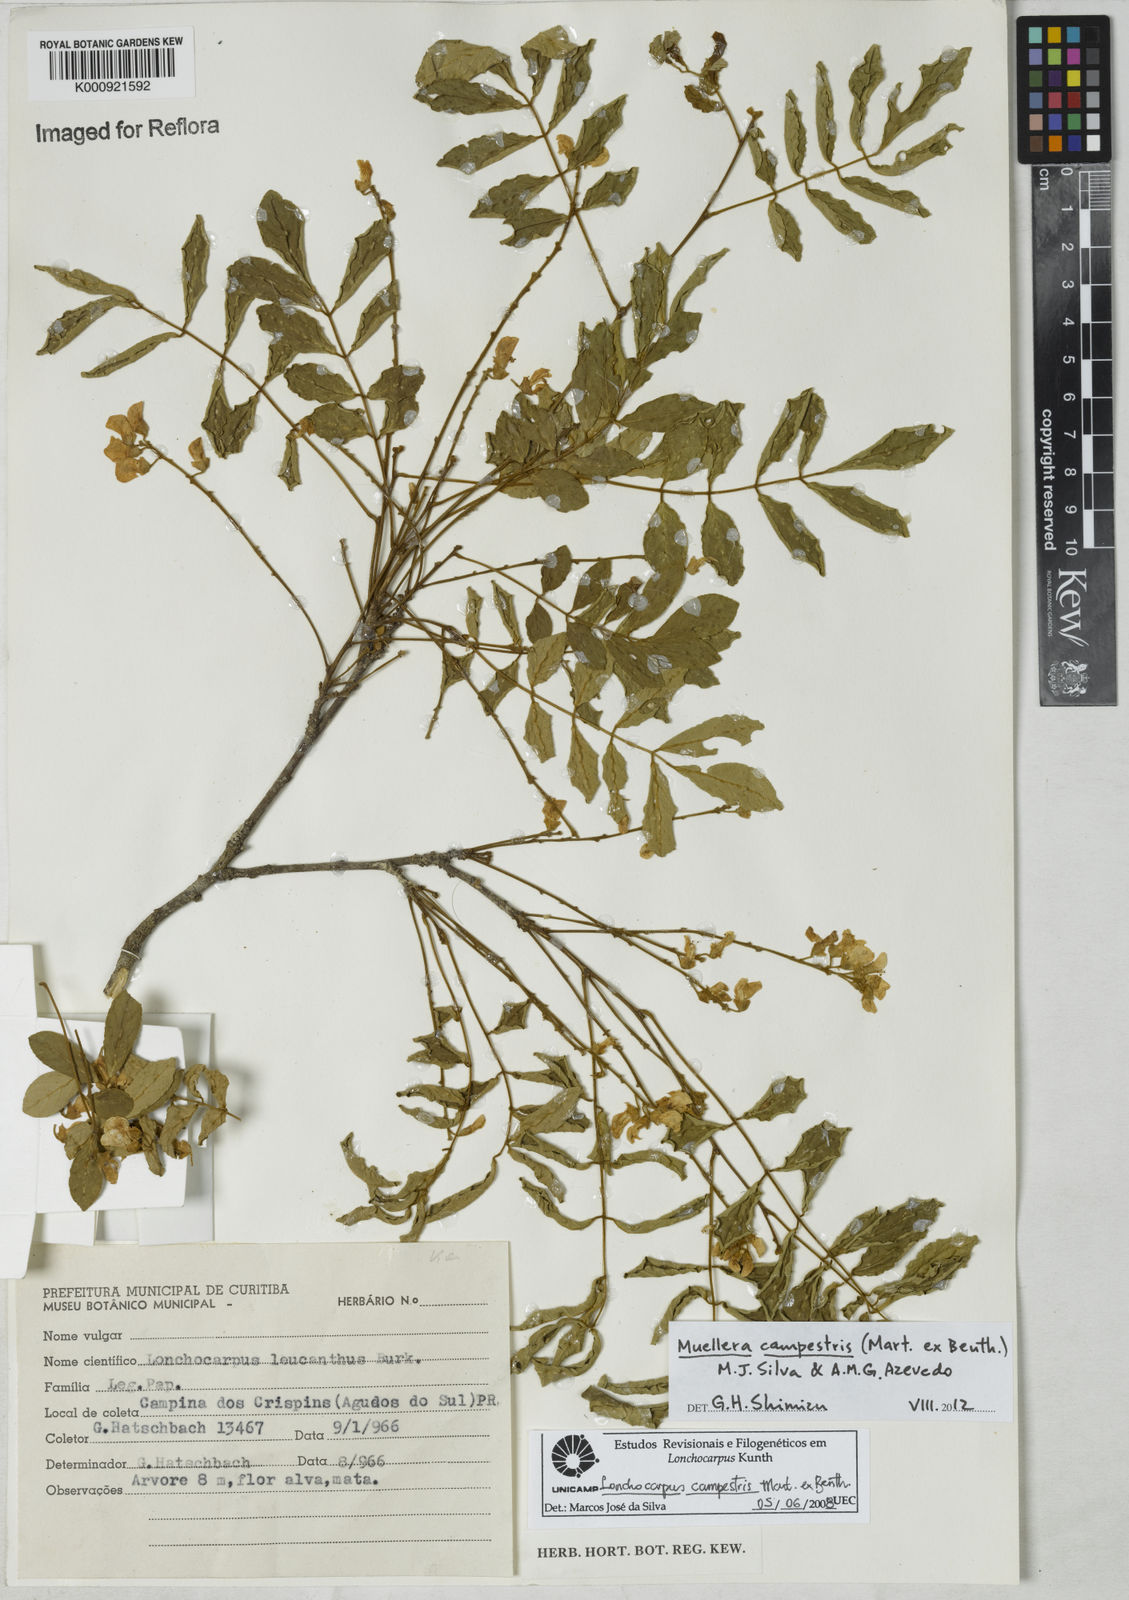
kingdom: Plantae
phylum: Tracheophyta
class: Magnoliopsida
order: Fabales
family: Fabaceae
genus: Muellera
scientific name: Muellera campestris
